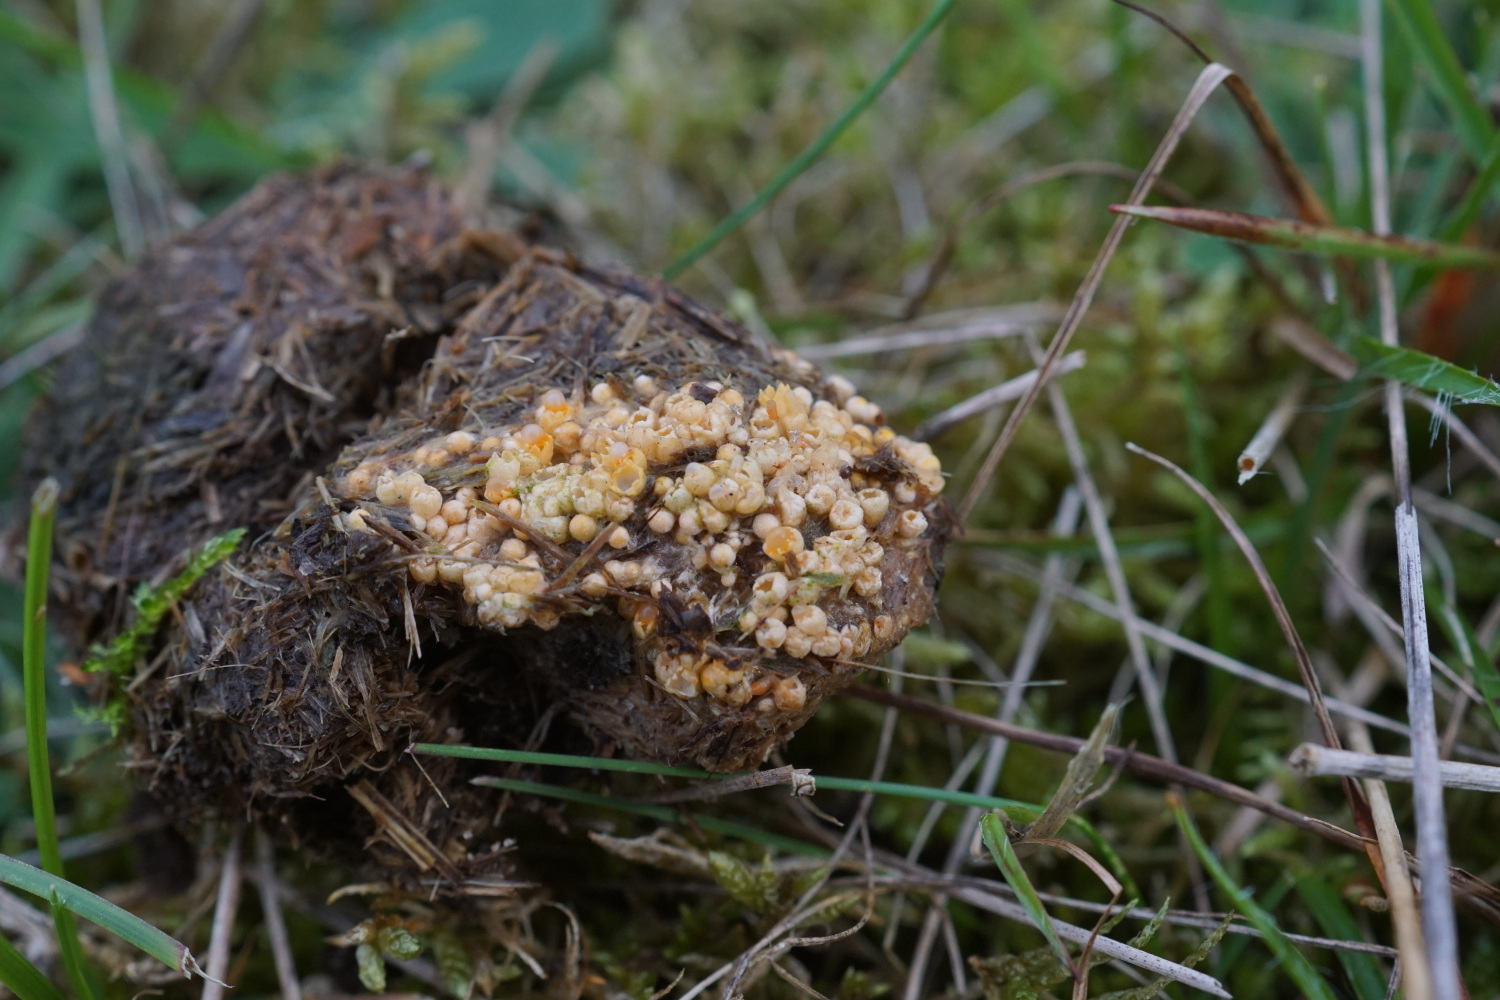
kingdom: Fungi
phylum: Basidiomycota
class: Agaricomycetes
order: Geastrales
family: Geastraceae
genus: Sphaerobolus
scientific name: Sphaerobolus stellatus
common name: bombekaster
